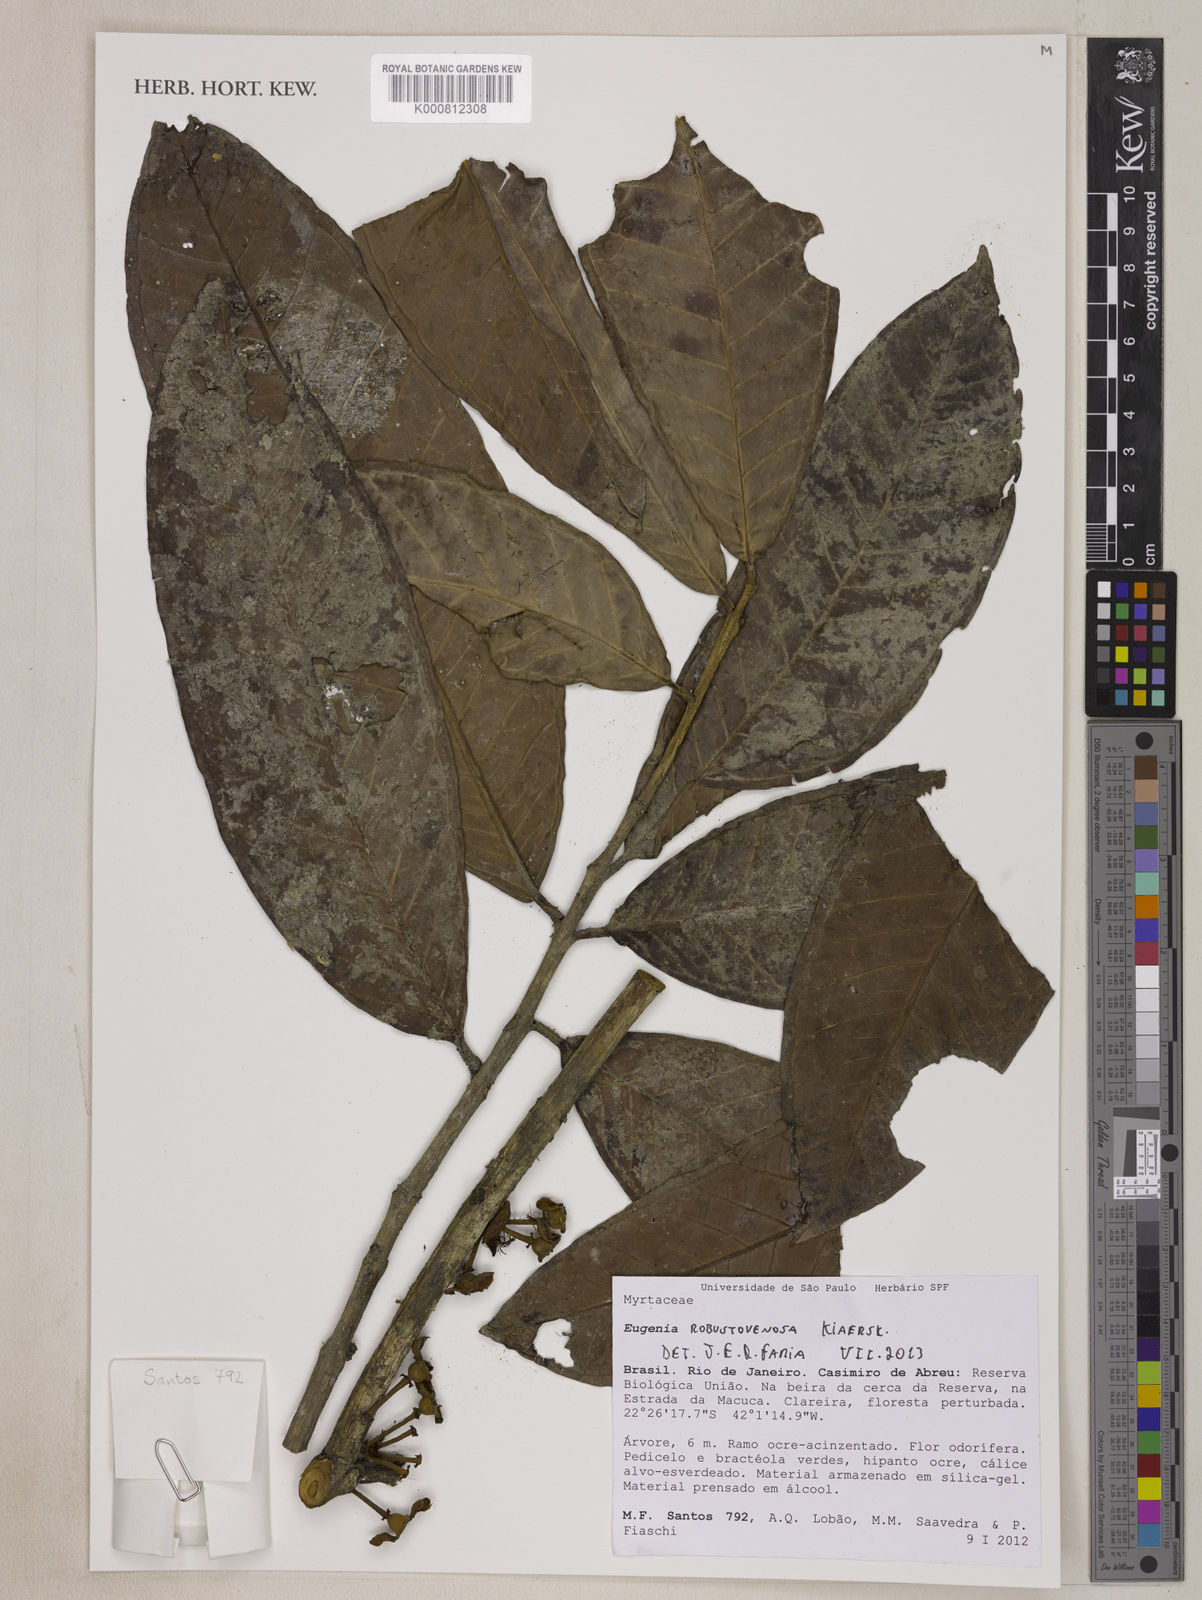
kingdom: Plantae
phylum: Tracheophyta
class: Magnoliopsida
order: Myrtales
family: Myrtaceae
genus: Eugenia
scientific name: Eugenia umbrosa
